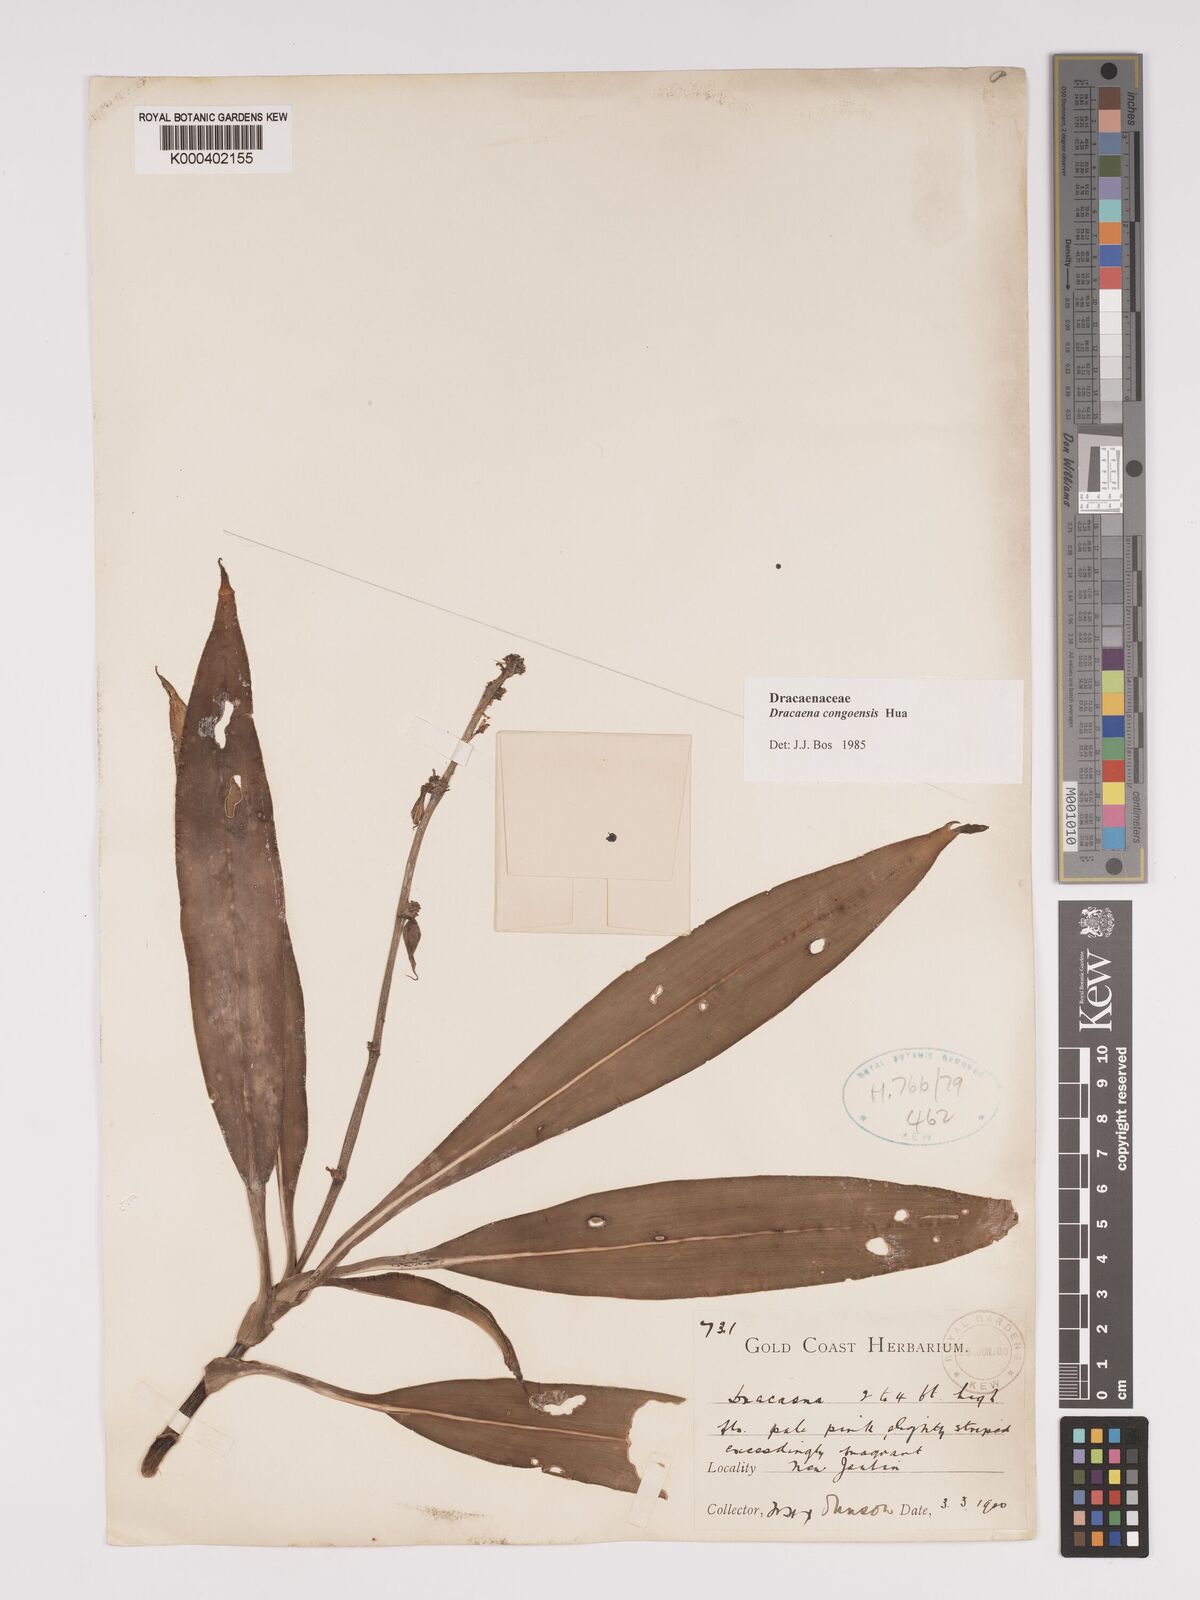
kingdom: Plantae
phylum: Tracheophyta
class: Liliopsida
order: Asparagales
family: Asparagaceae
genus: Dracaena
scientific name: Dracaena congoensis
